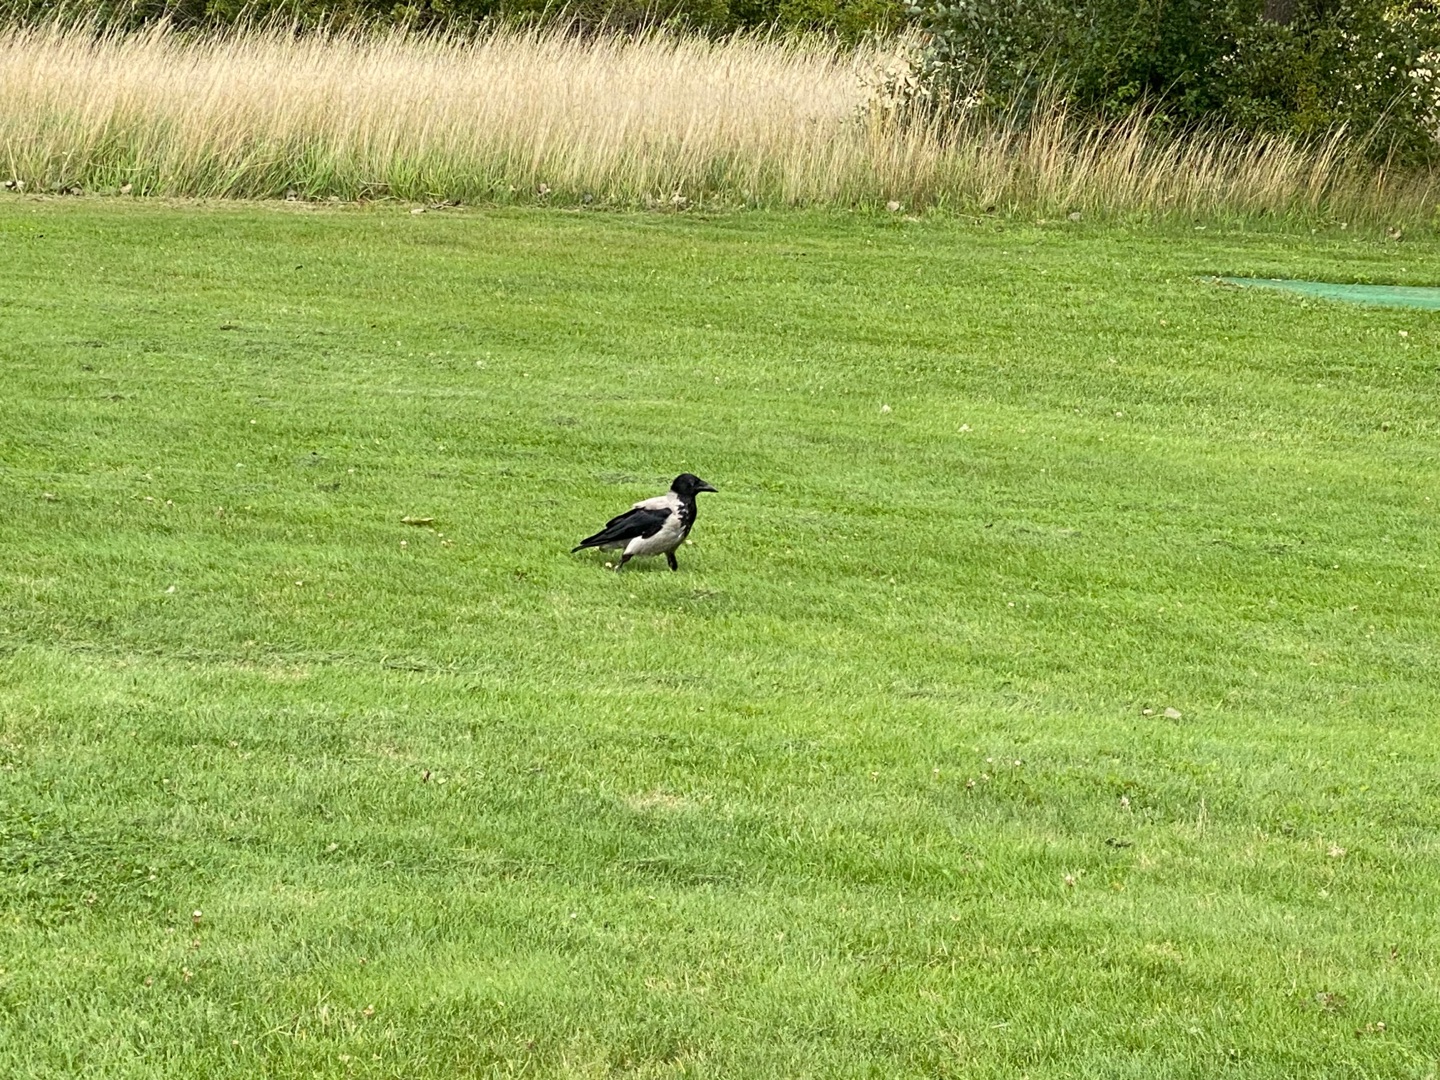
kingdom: Animalia
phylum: Chordata
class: Aves
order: Passeriformes
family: Corvidae
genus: Corvus
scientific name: Corvus cornix
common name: Gråkrage
